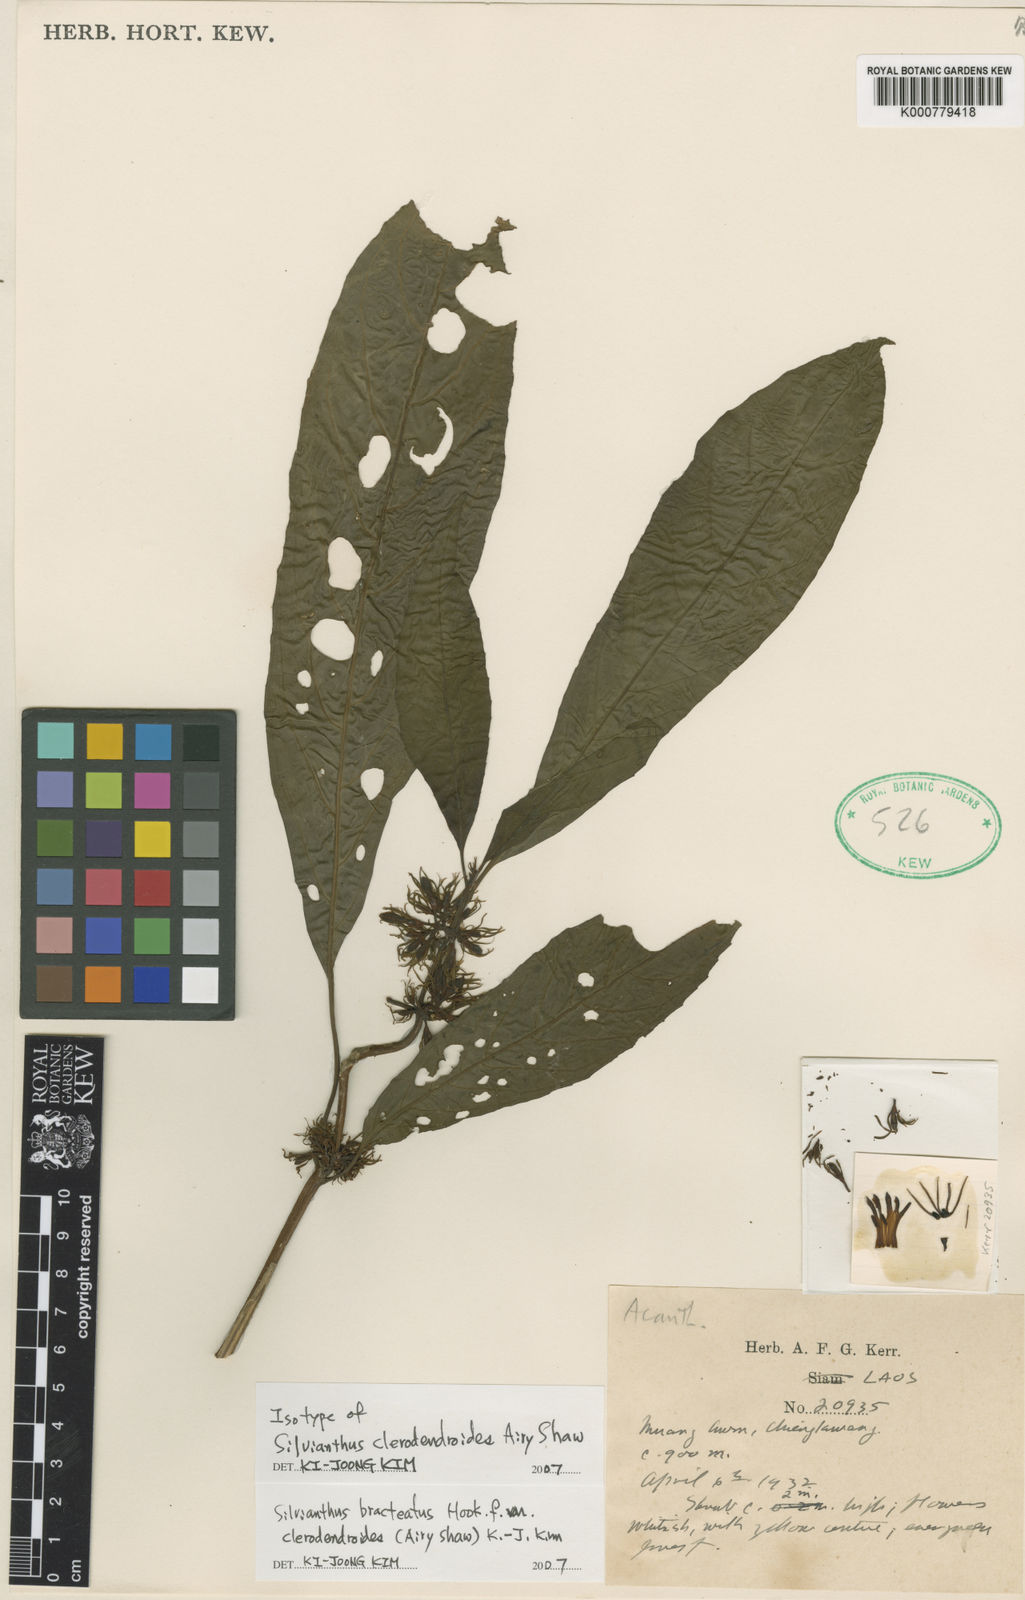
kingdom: Plantae
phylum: Tracheophyta
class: Magnoliopsida
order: Lamiales
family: Carlemanniaceae
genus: Silvianthus
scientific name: Silvianthus bracteatus
